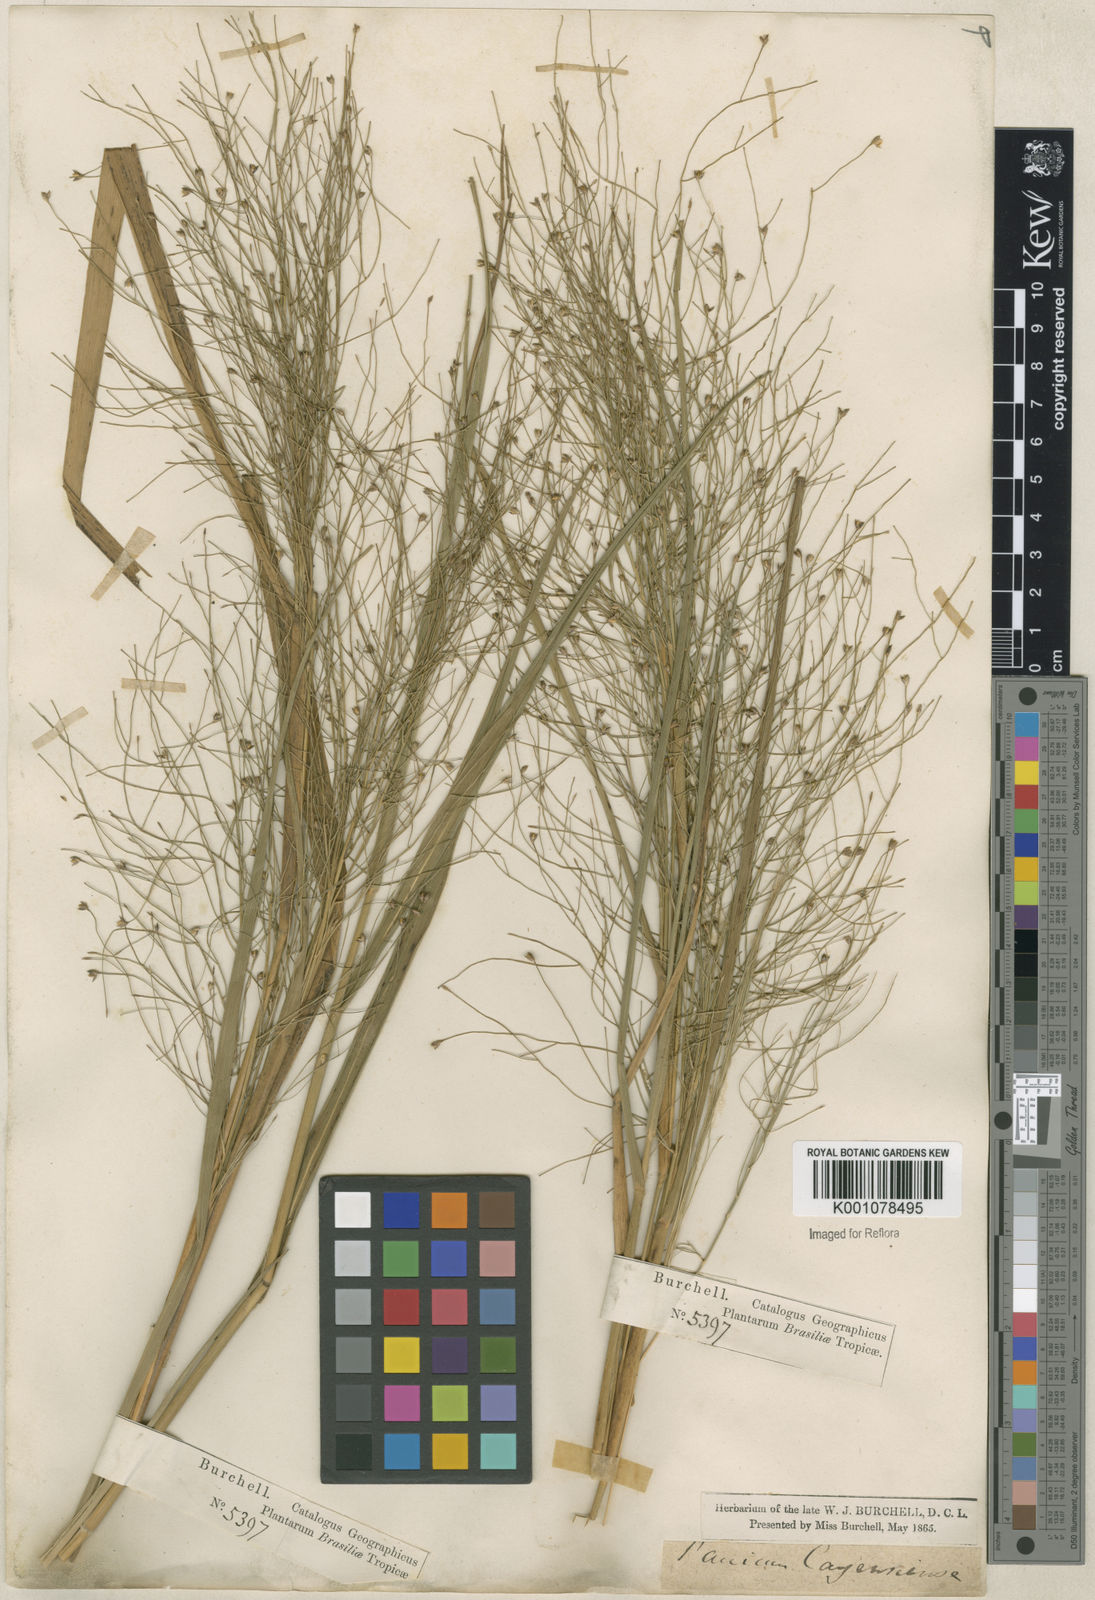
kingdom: Plantae
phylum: Tracheophyta
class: Liliopsida
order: Poales
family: Poaceae
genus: Panicum
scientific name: Panicum rudgei
